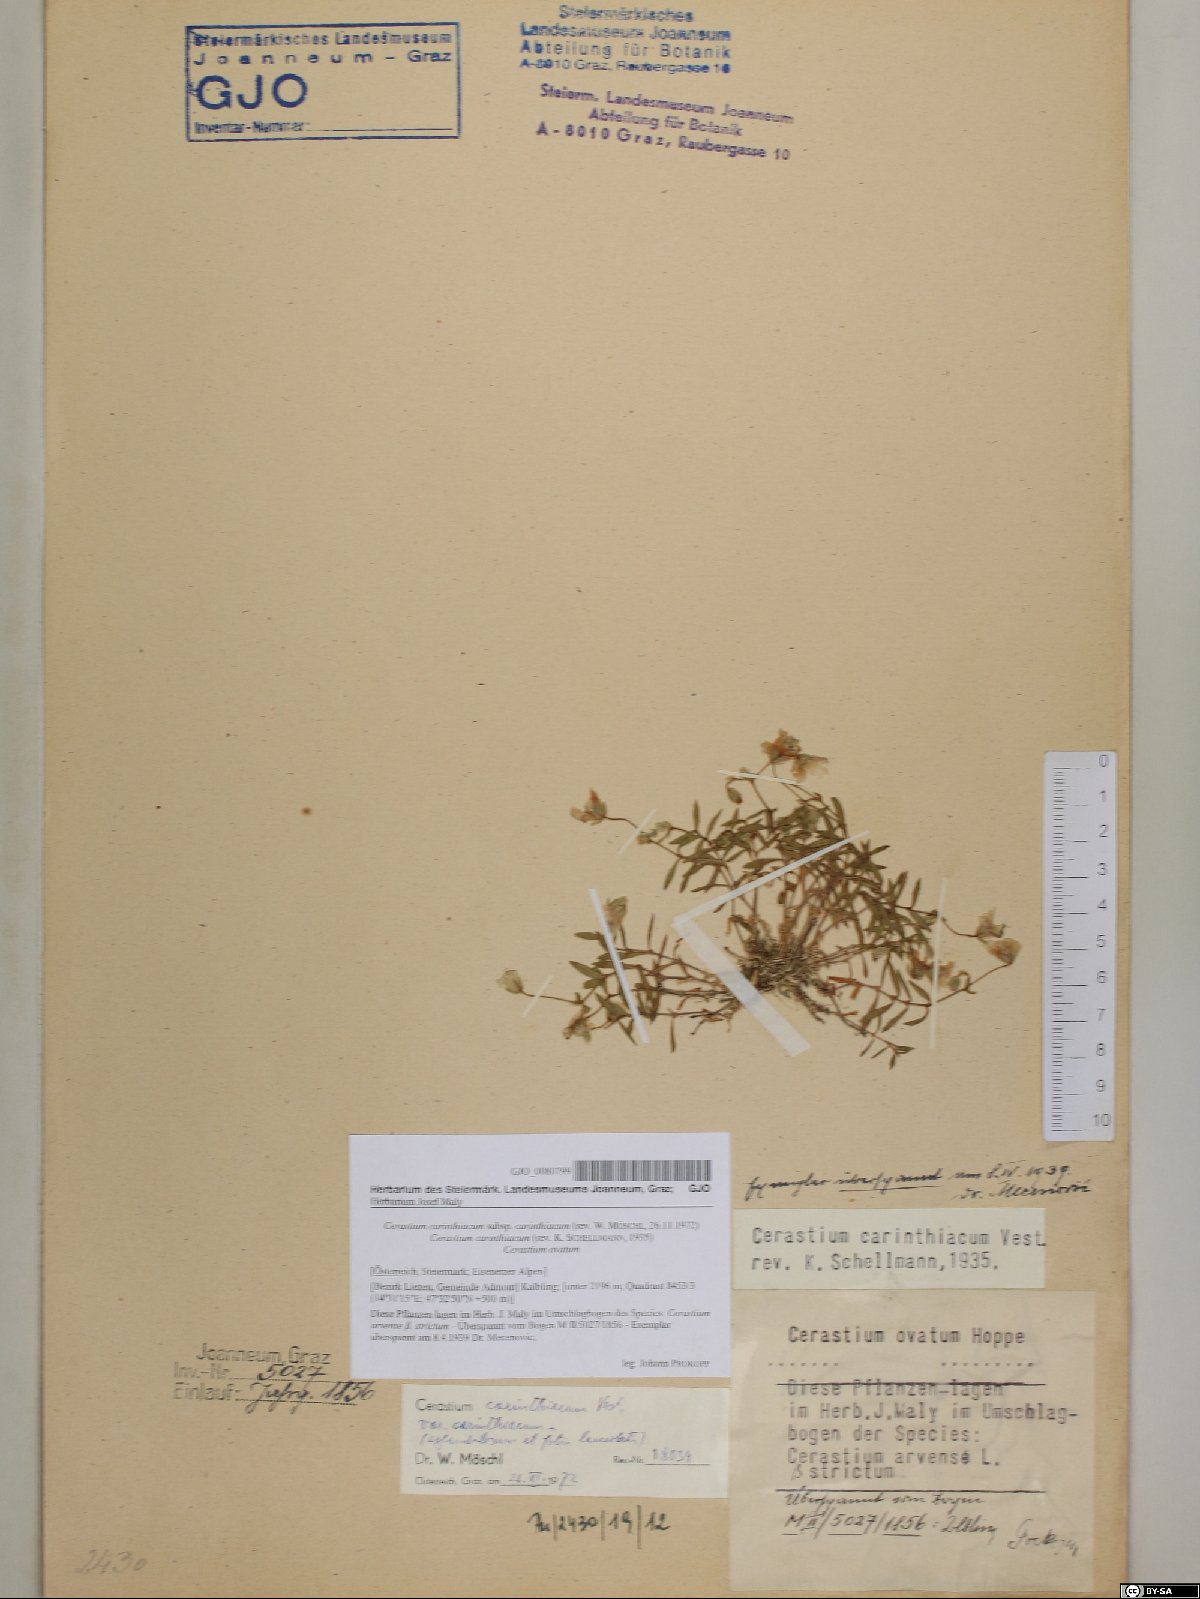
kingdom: Plantae
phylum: Tracheophyta
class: Magnoliopsida
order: Caryophyllales
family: Caryophyllaceae
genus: Cerastium
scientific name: Cerastium carinthiacum
